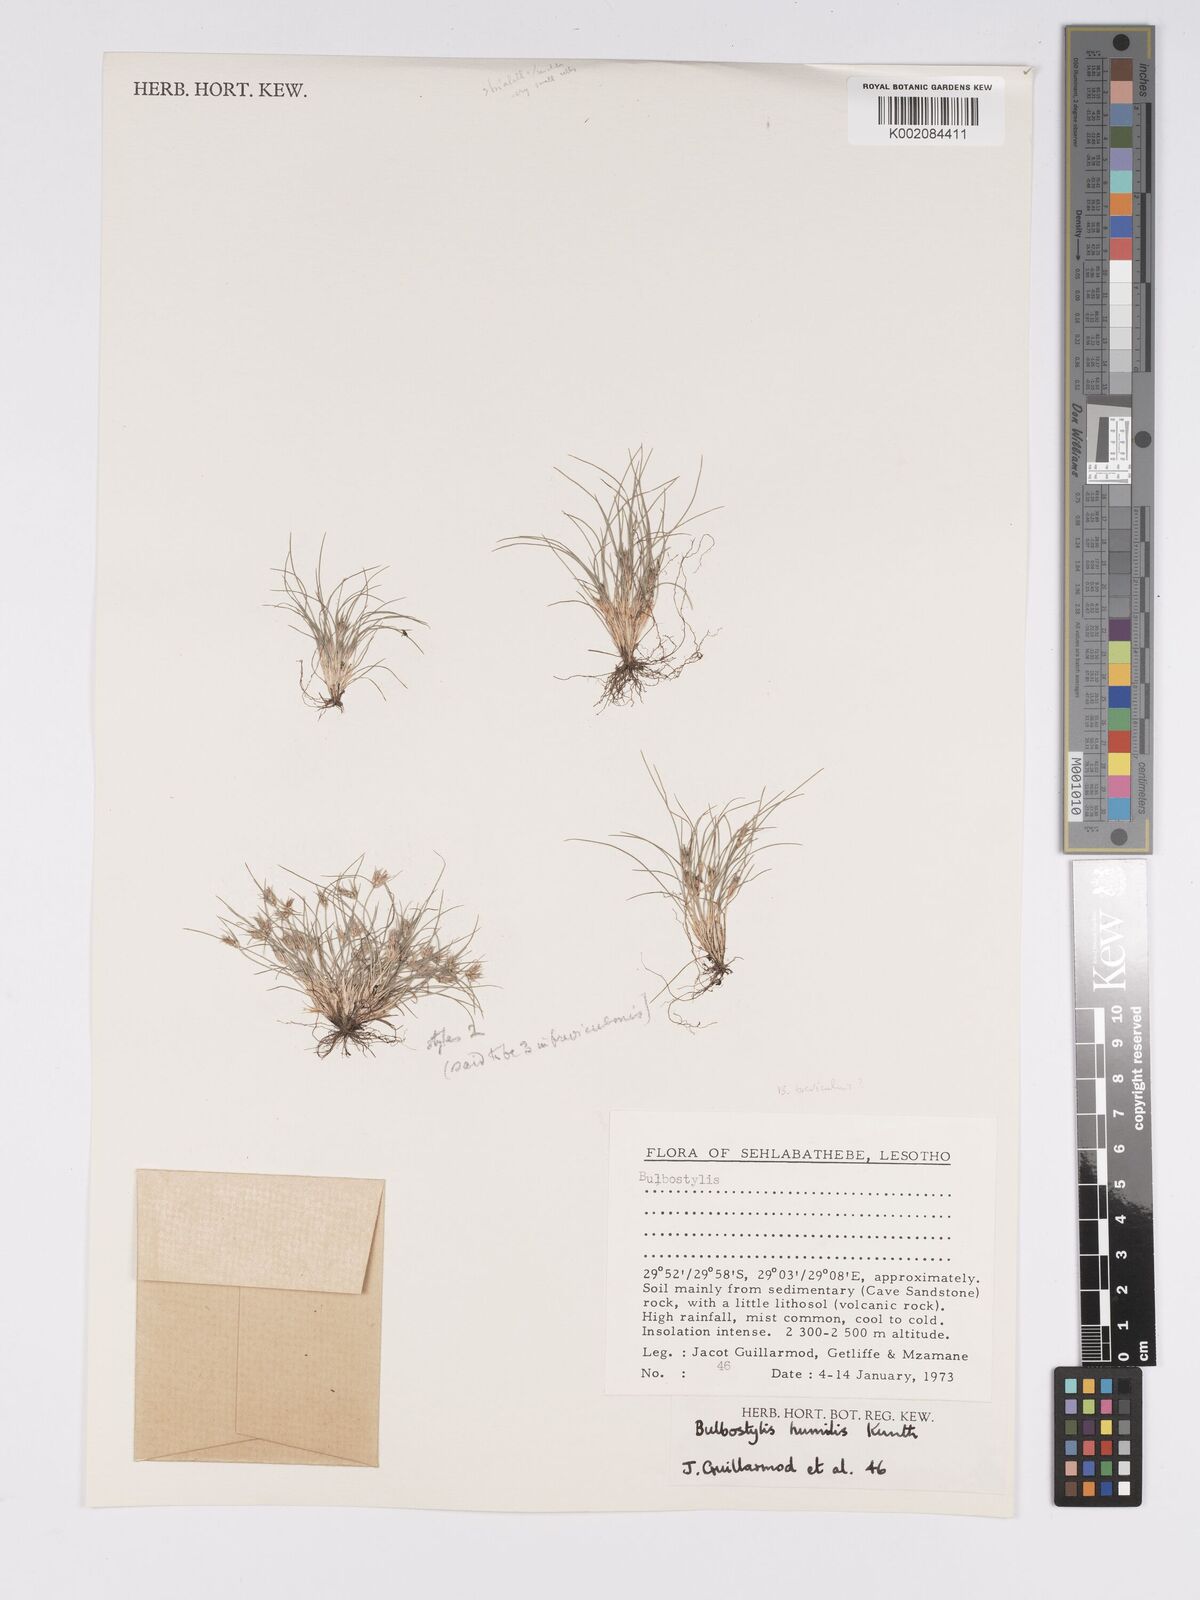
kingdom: Plantae
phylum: Tracheophyta
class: Liliopsida
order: Poales
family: Cyperaceae
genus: Bulbostylis
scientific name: Bulbostylis humilis
